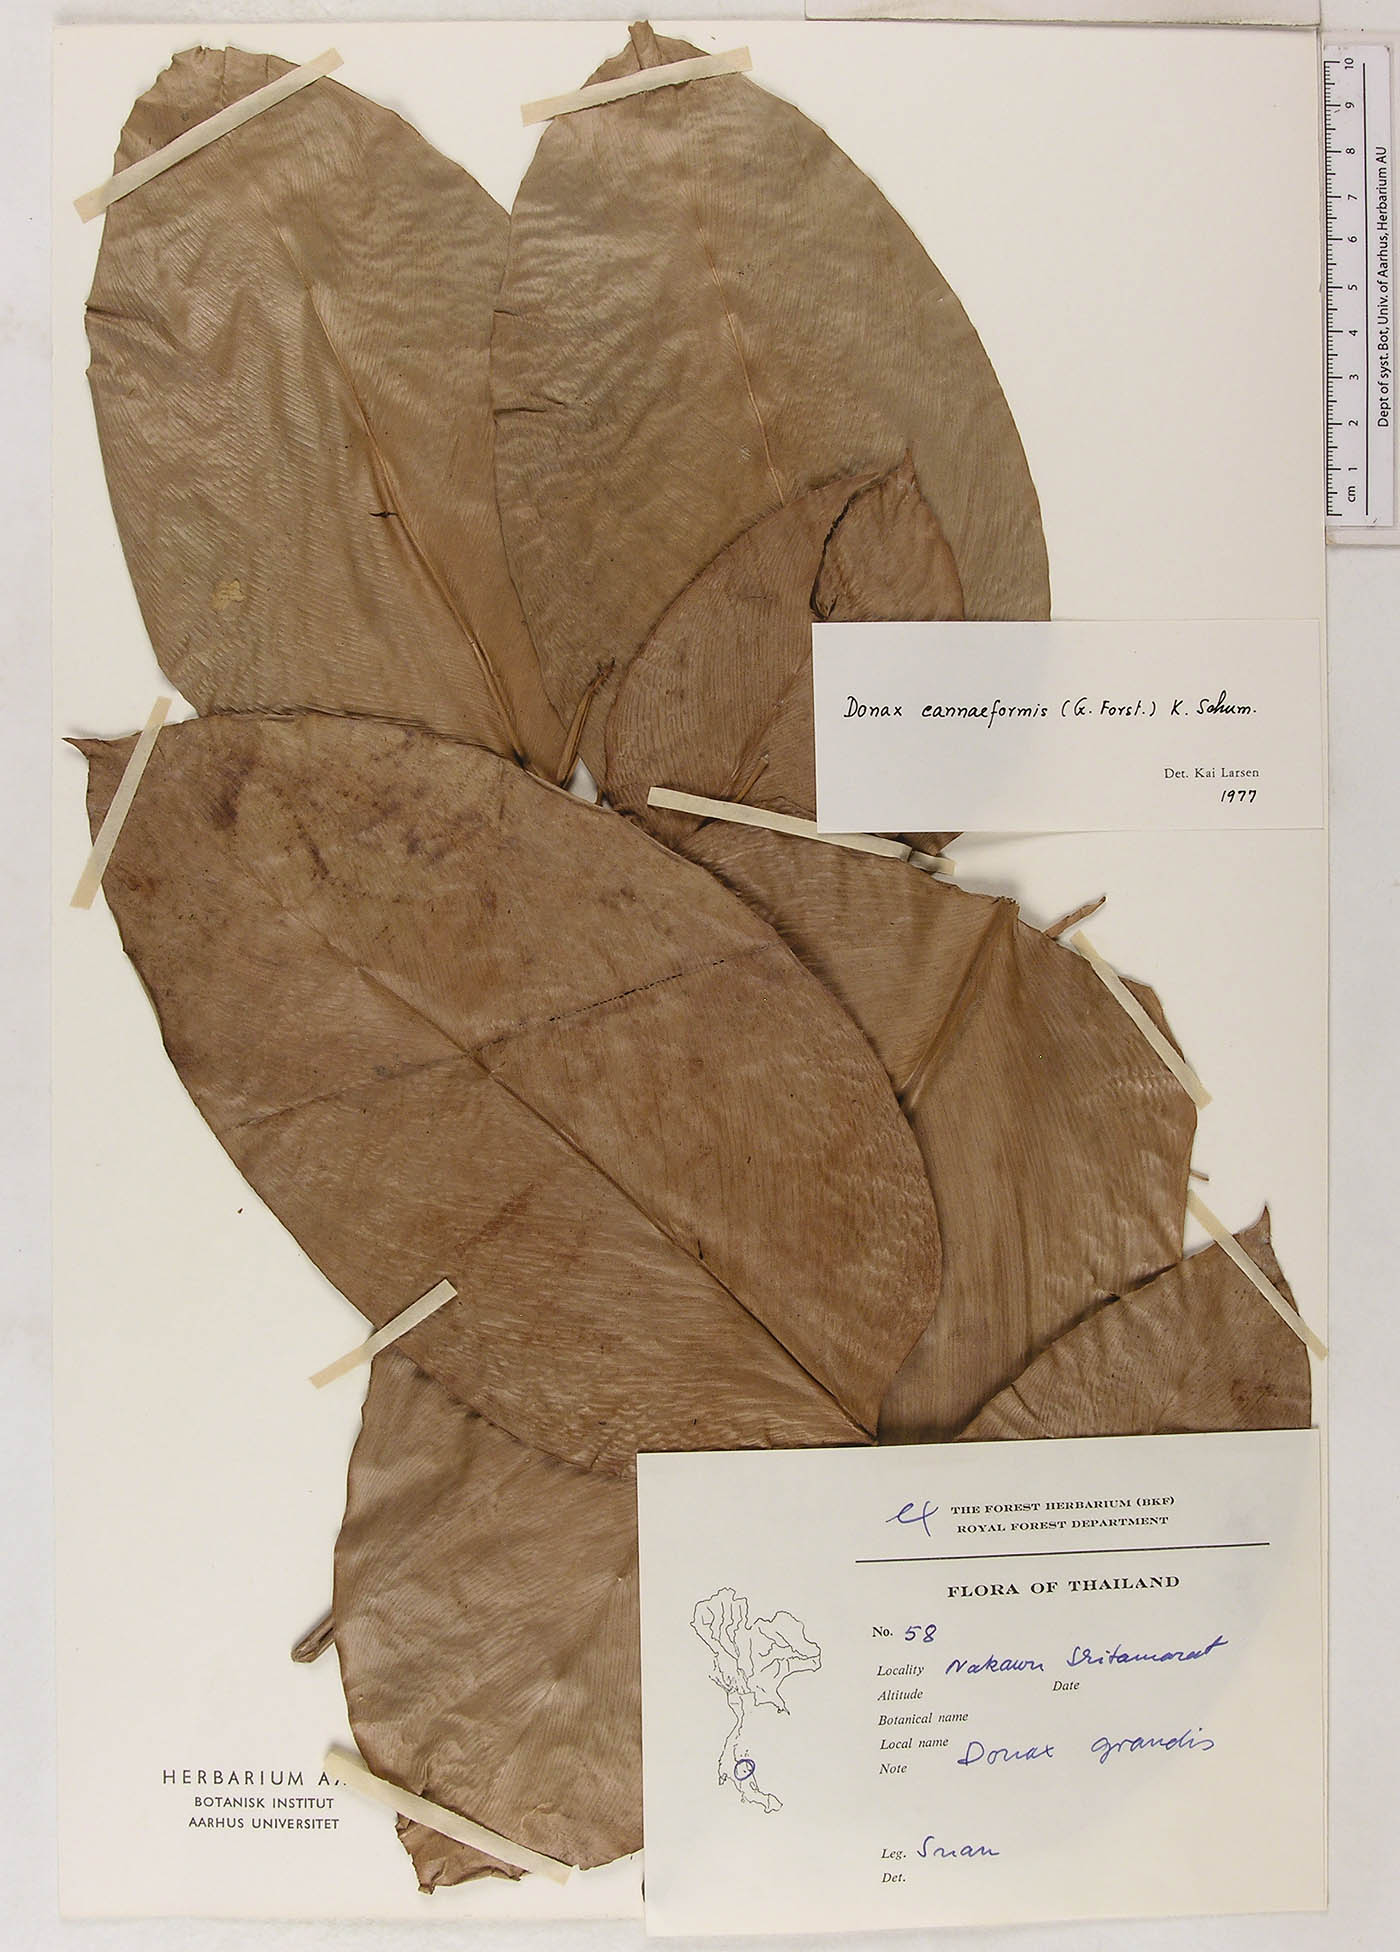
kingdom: Plantae
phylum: Tracheophyta
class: Liliopsida
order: Zingiberales
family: Marantaceae
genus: Donax
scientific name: Donax canniformis
